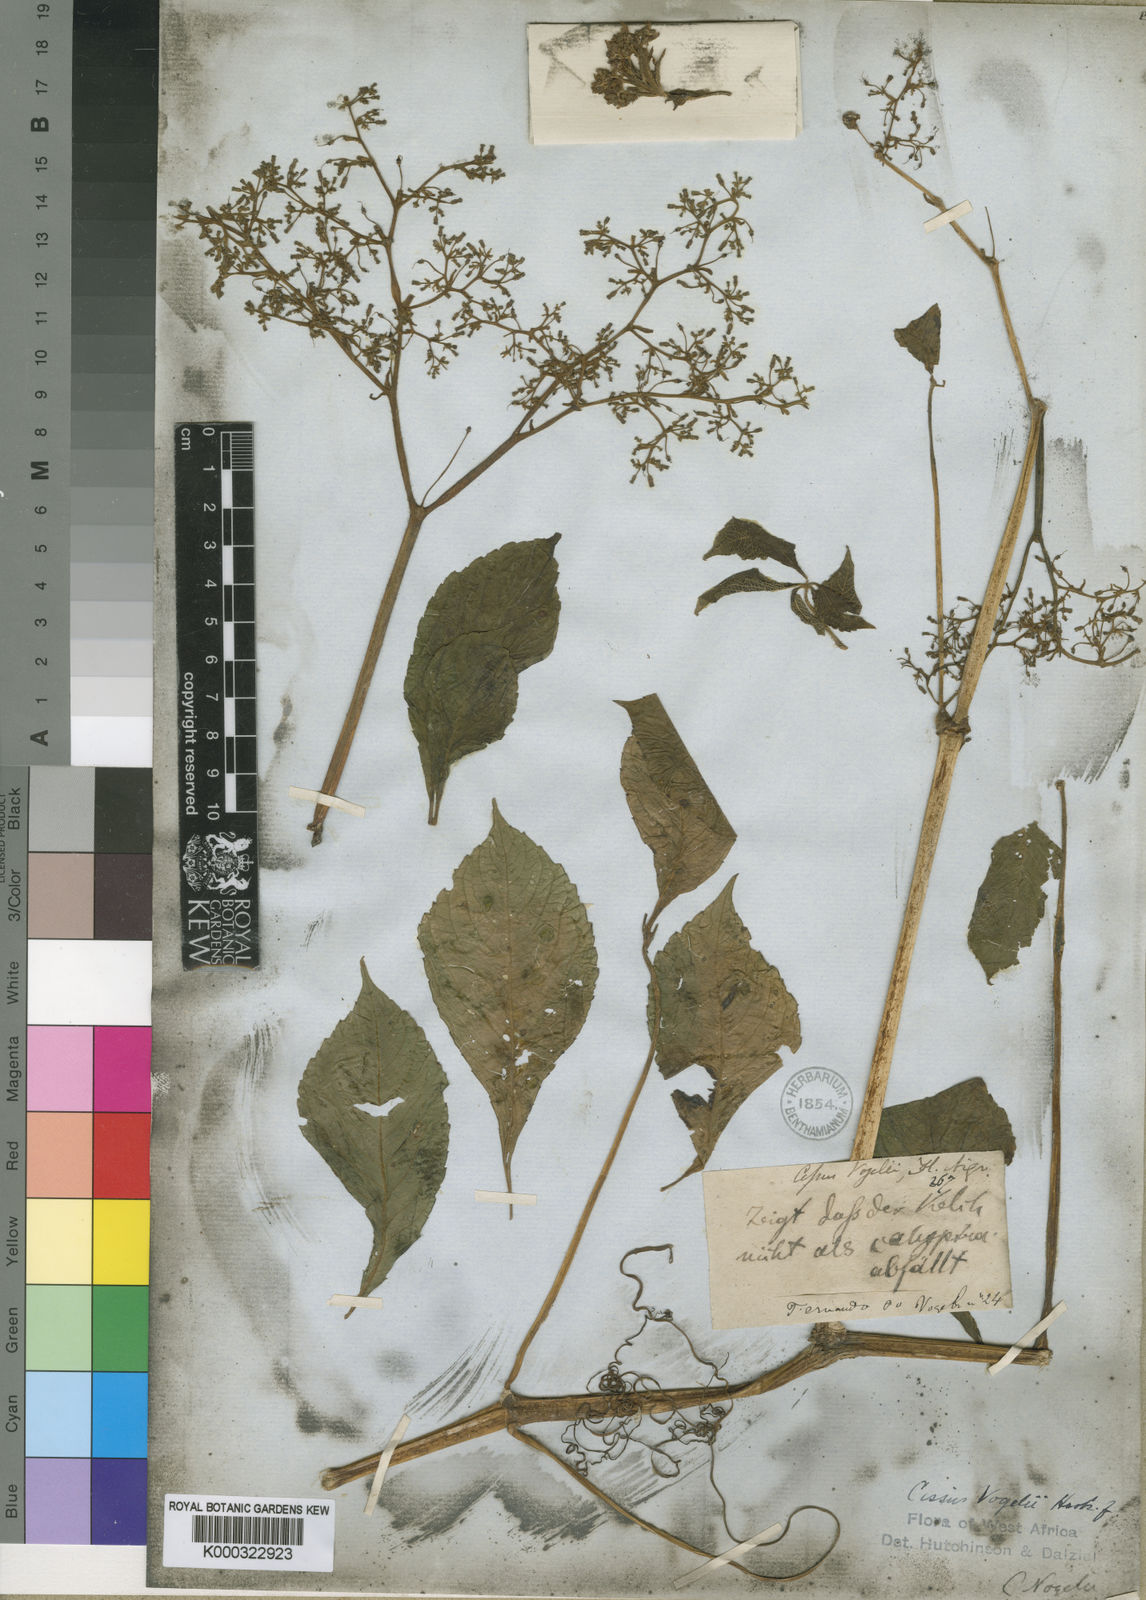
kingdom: Plantae
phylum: Tracheophyta
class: Magnoliopsida
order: Vitales
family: Vitaceae
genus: Cyphostemma
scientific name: Cyphostemma vogelii
